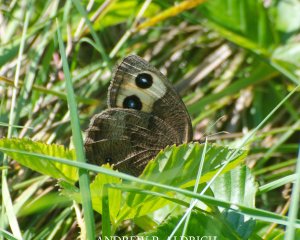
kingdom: Animalia
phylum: Arthropoda
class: Insecta
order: Lepidoptera
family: Nymphalidae
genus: Cercyonis
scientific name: Cercyonis pegala
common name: Common Wood-Nymph
